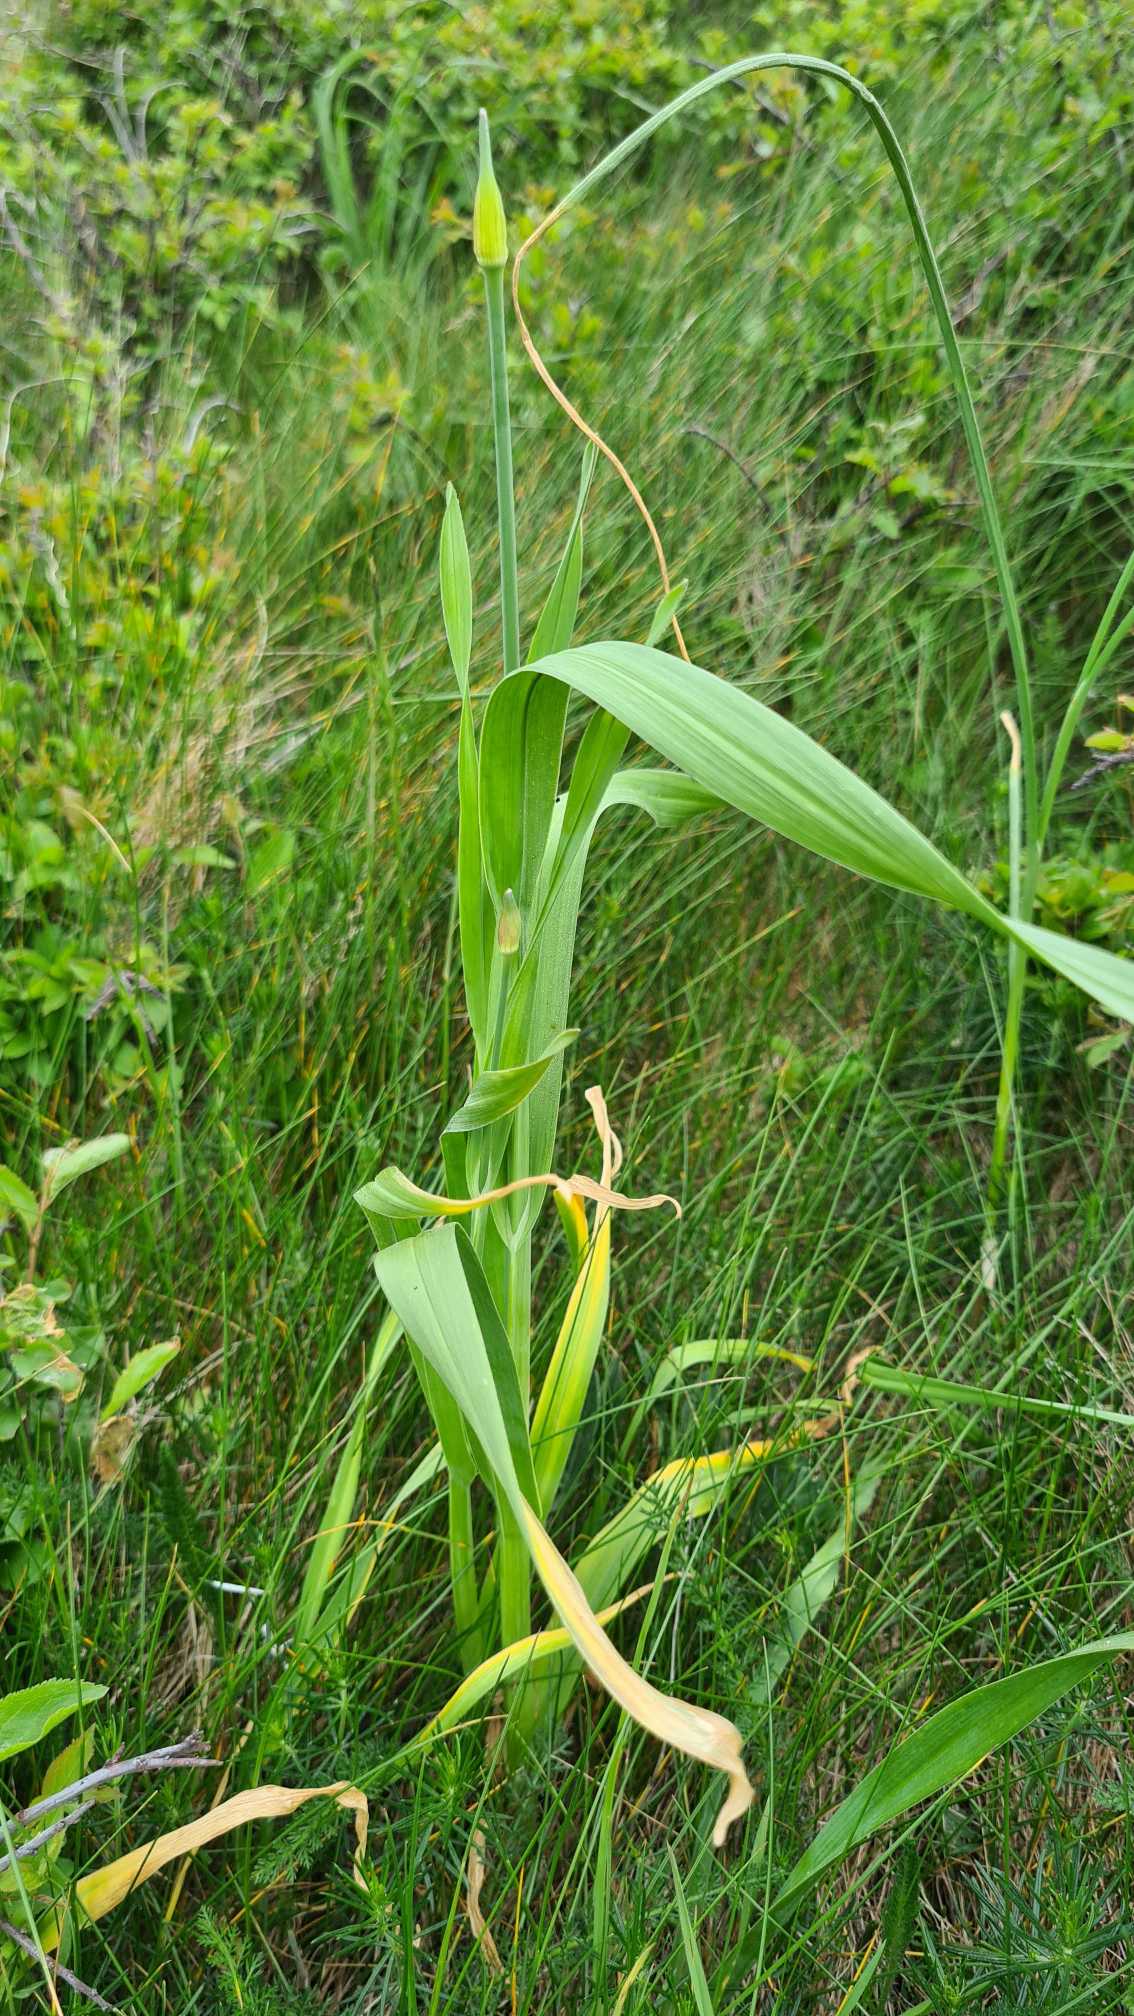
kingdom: Plantae
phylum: Tracheophyta
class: Liliopsida
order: Asparagales
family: Amaryllidaceae
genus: Allium
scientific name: Allium scorodoprasum
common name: Skov-løg
